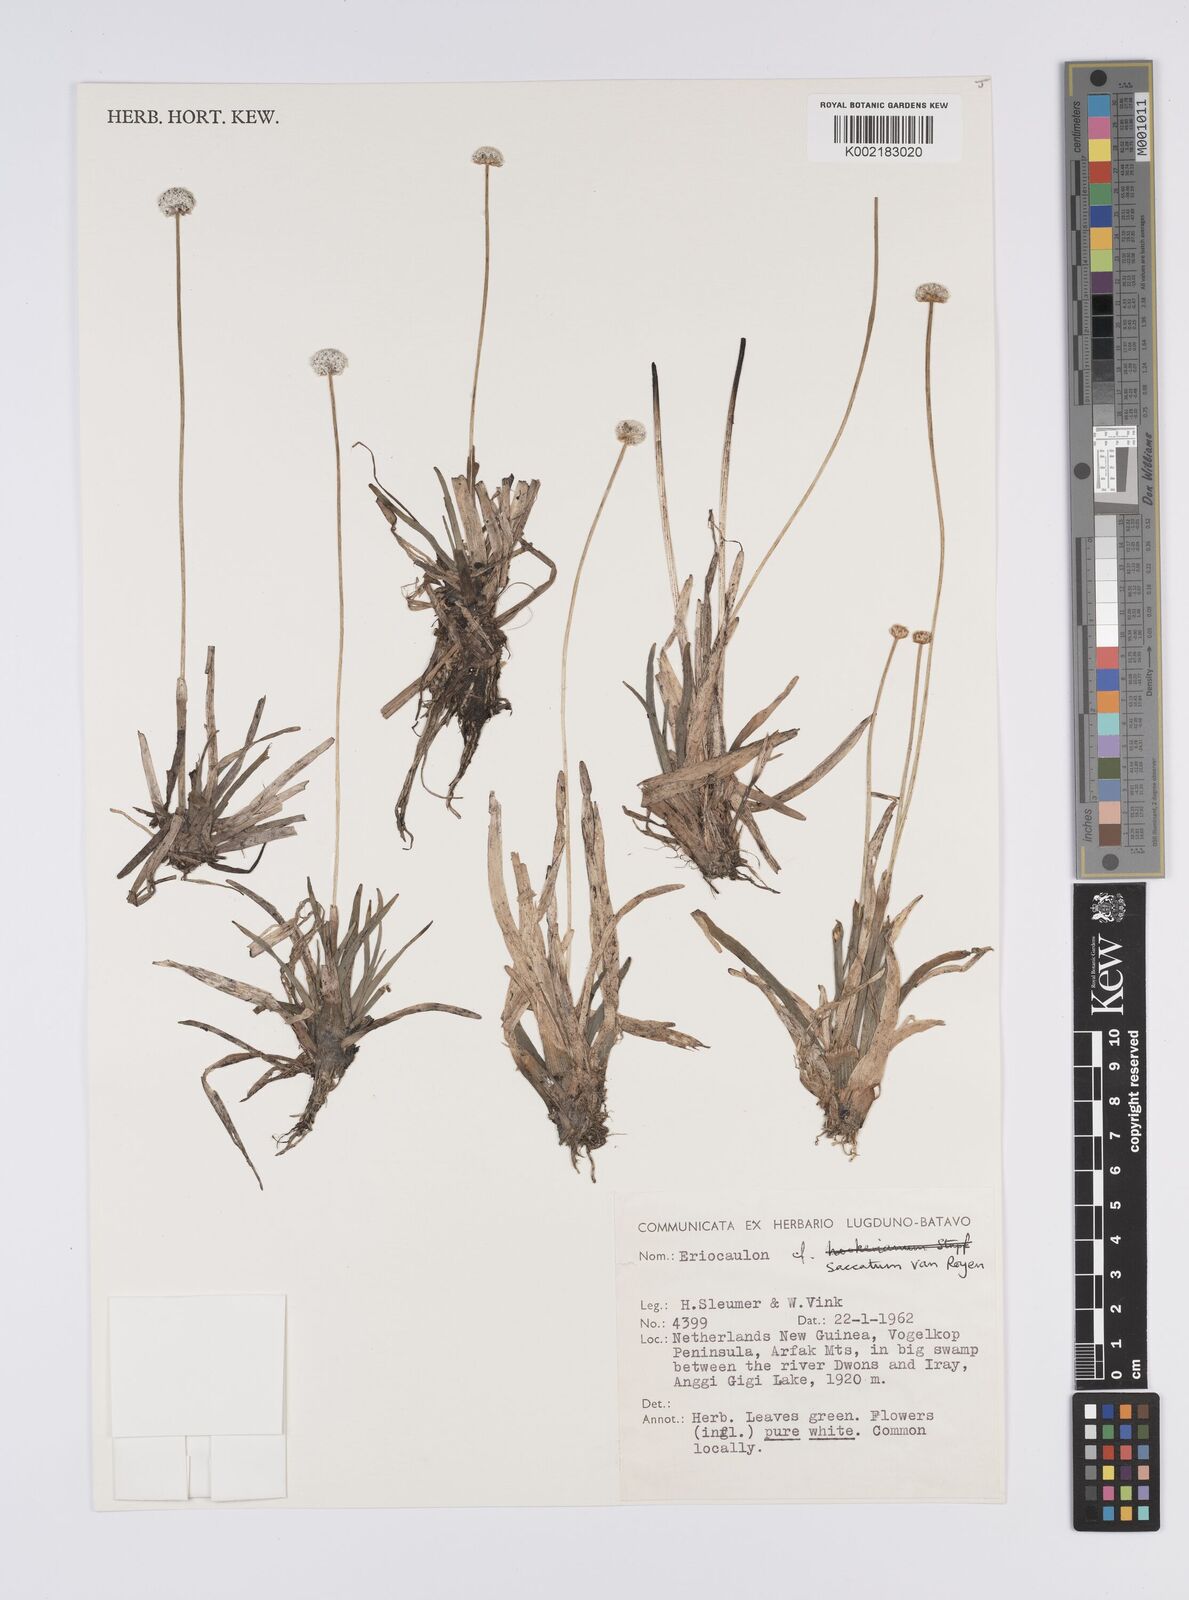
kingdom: Plantae
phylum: Tracheophyta
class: Liliopsida
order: Poales
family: Eriocaulaceae
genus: Eriocaulon
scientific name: Eriocaulon saccatum
